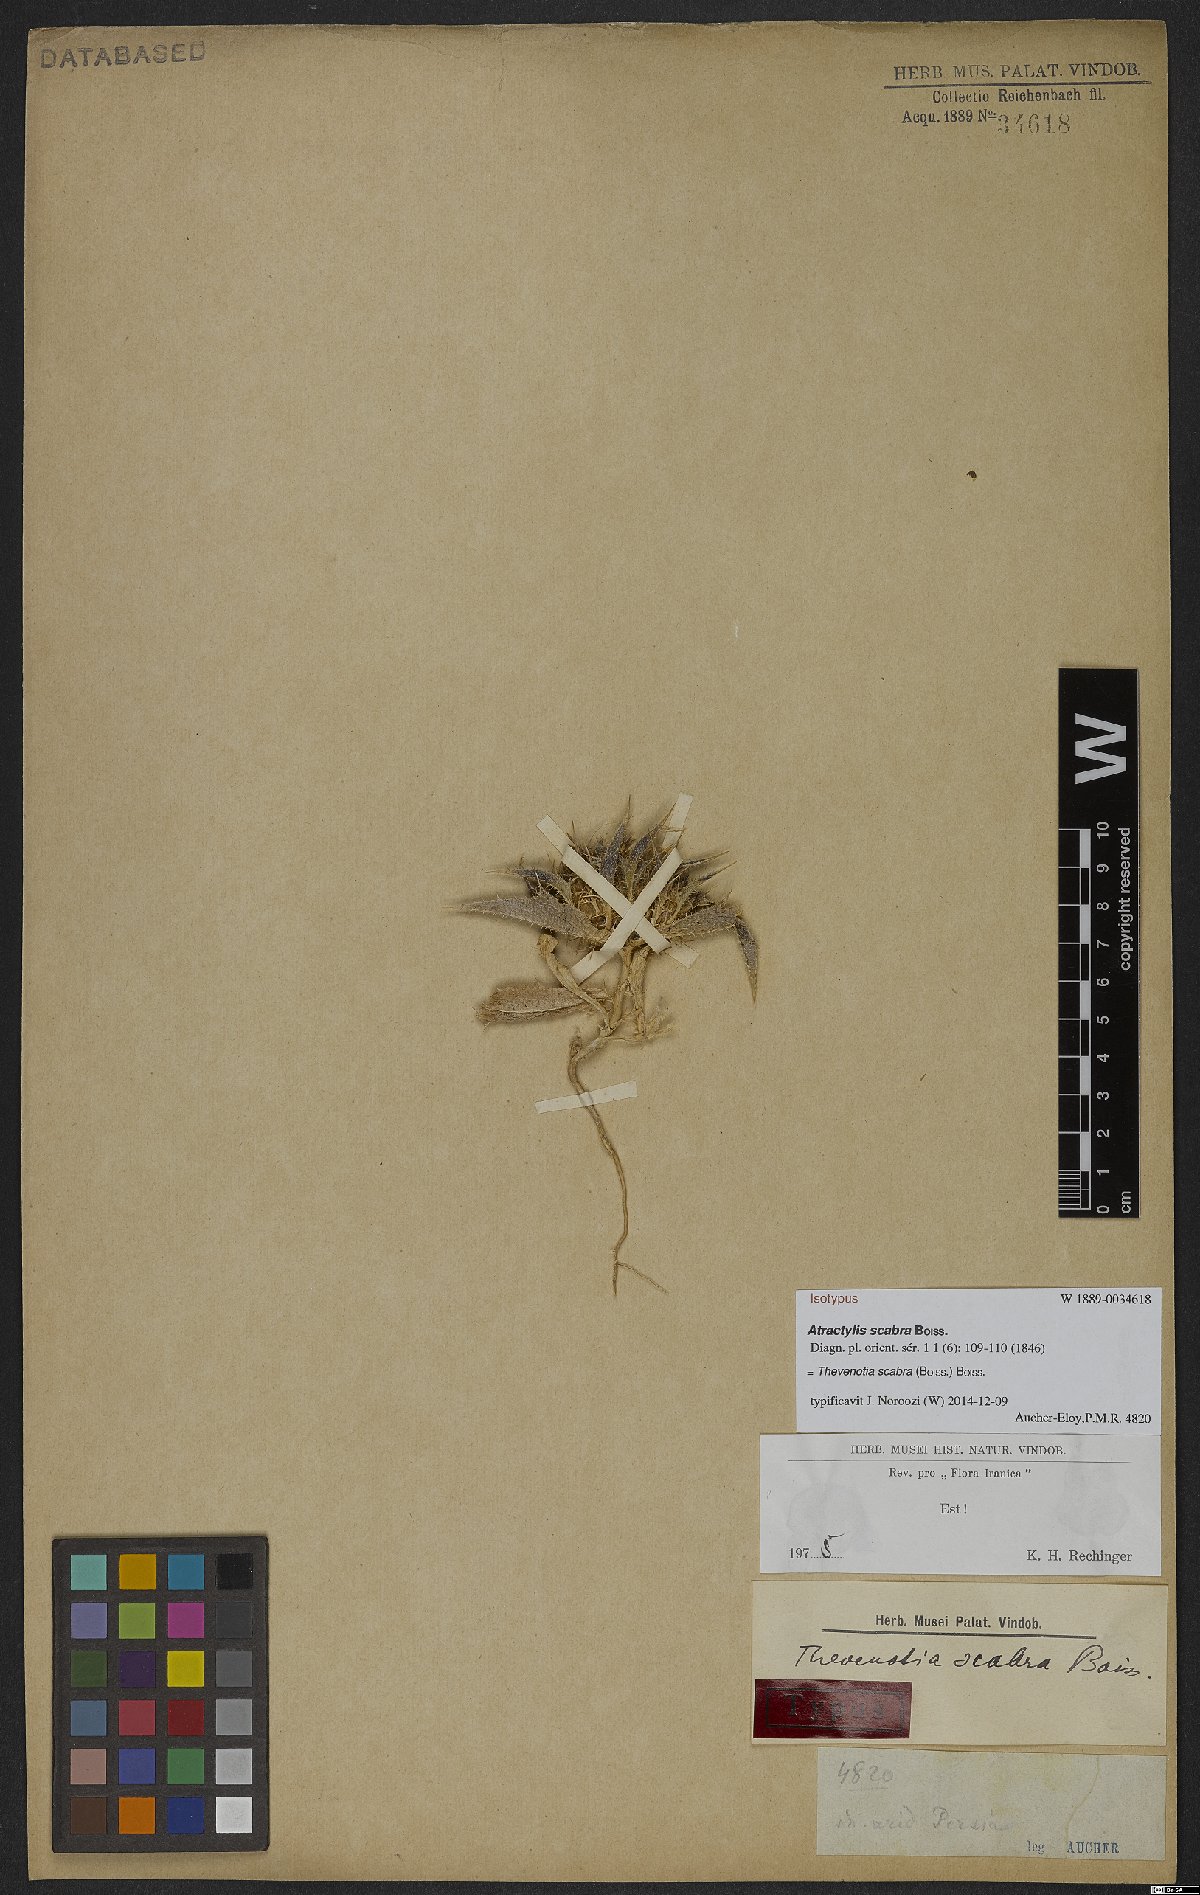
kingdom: Plantae
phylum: Tracheophyta
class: Magnoliopsida
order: Asterales
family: Asteraceae
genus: Thevenotia
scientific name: Thevenotia scabra
